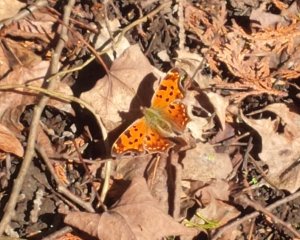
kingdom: Animalia
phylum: Arthropoda
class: Insecta
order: Lepidoptera
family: Nymphalidae
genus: Polygonia
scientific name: Polygonia comma
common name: Eastern Comma
